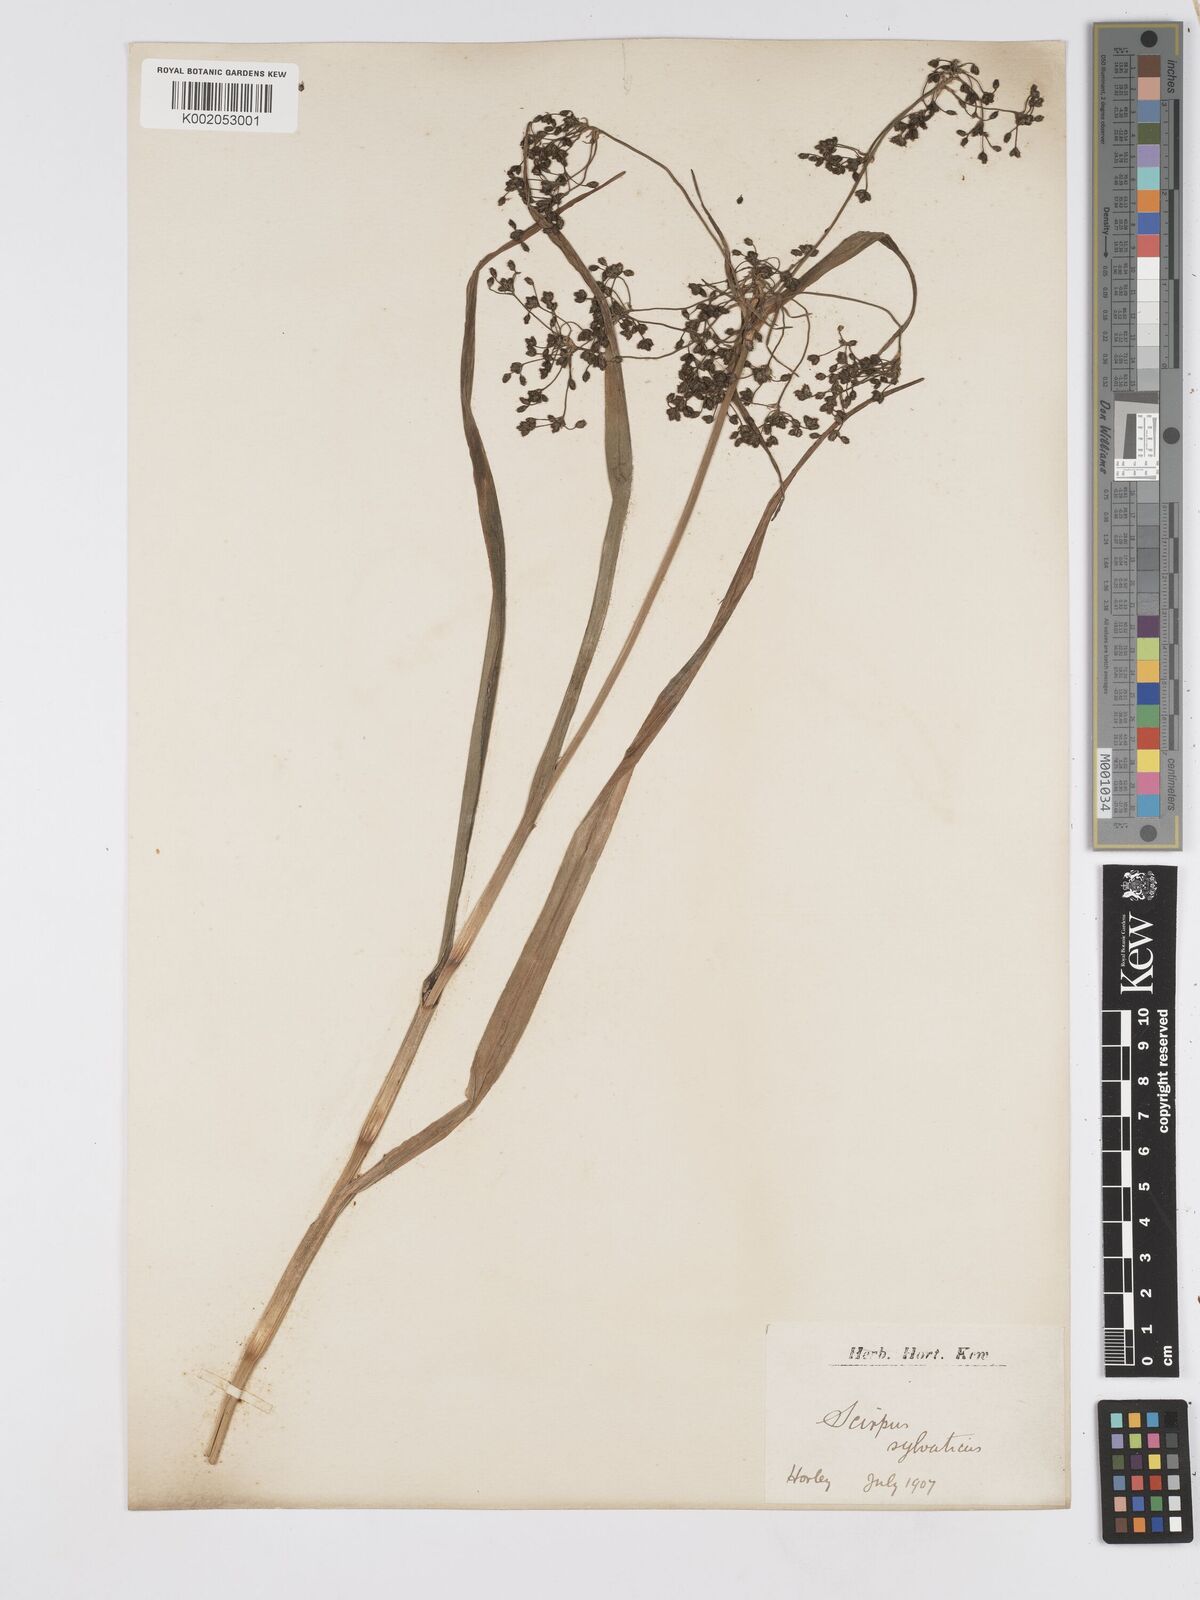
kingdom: Plantae
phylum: Tracheophyta
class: Liliopsida
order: Poales
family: Cyperaceae
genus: Scirpus
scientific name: Scirpus sylvaticus
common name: Wood club-rush
